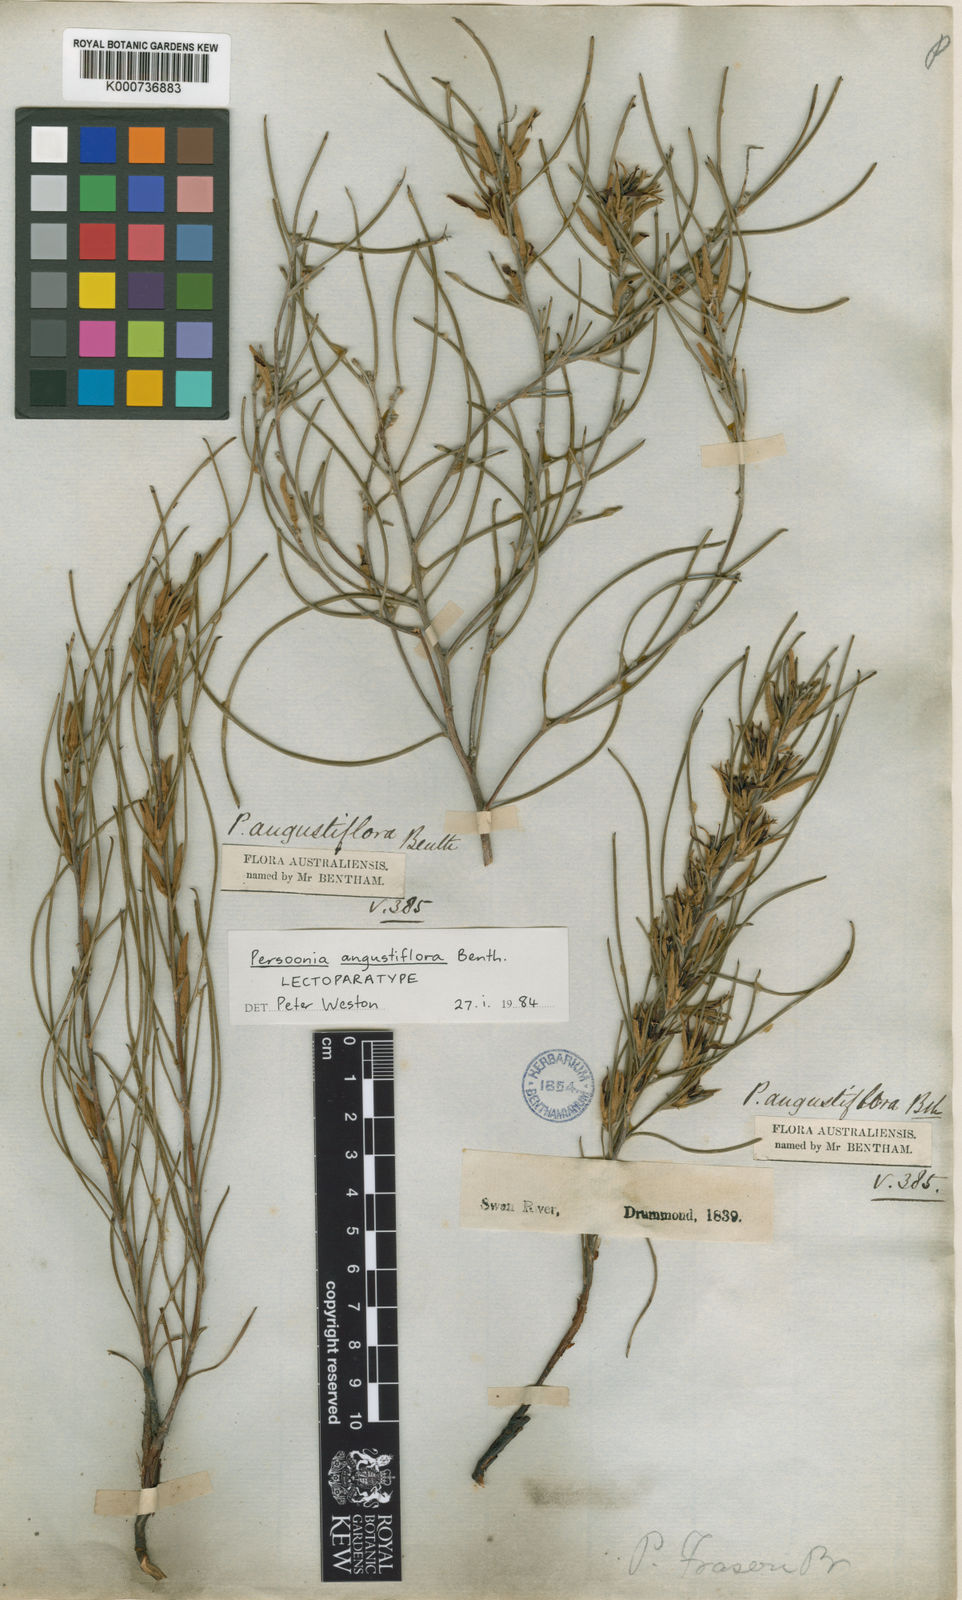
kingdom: Plantae
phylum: Tracheophyta
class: Magnoliopsida
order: Proteales
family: Proteaceae
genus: Persoonia
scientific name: Persoonia angustiflora
